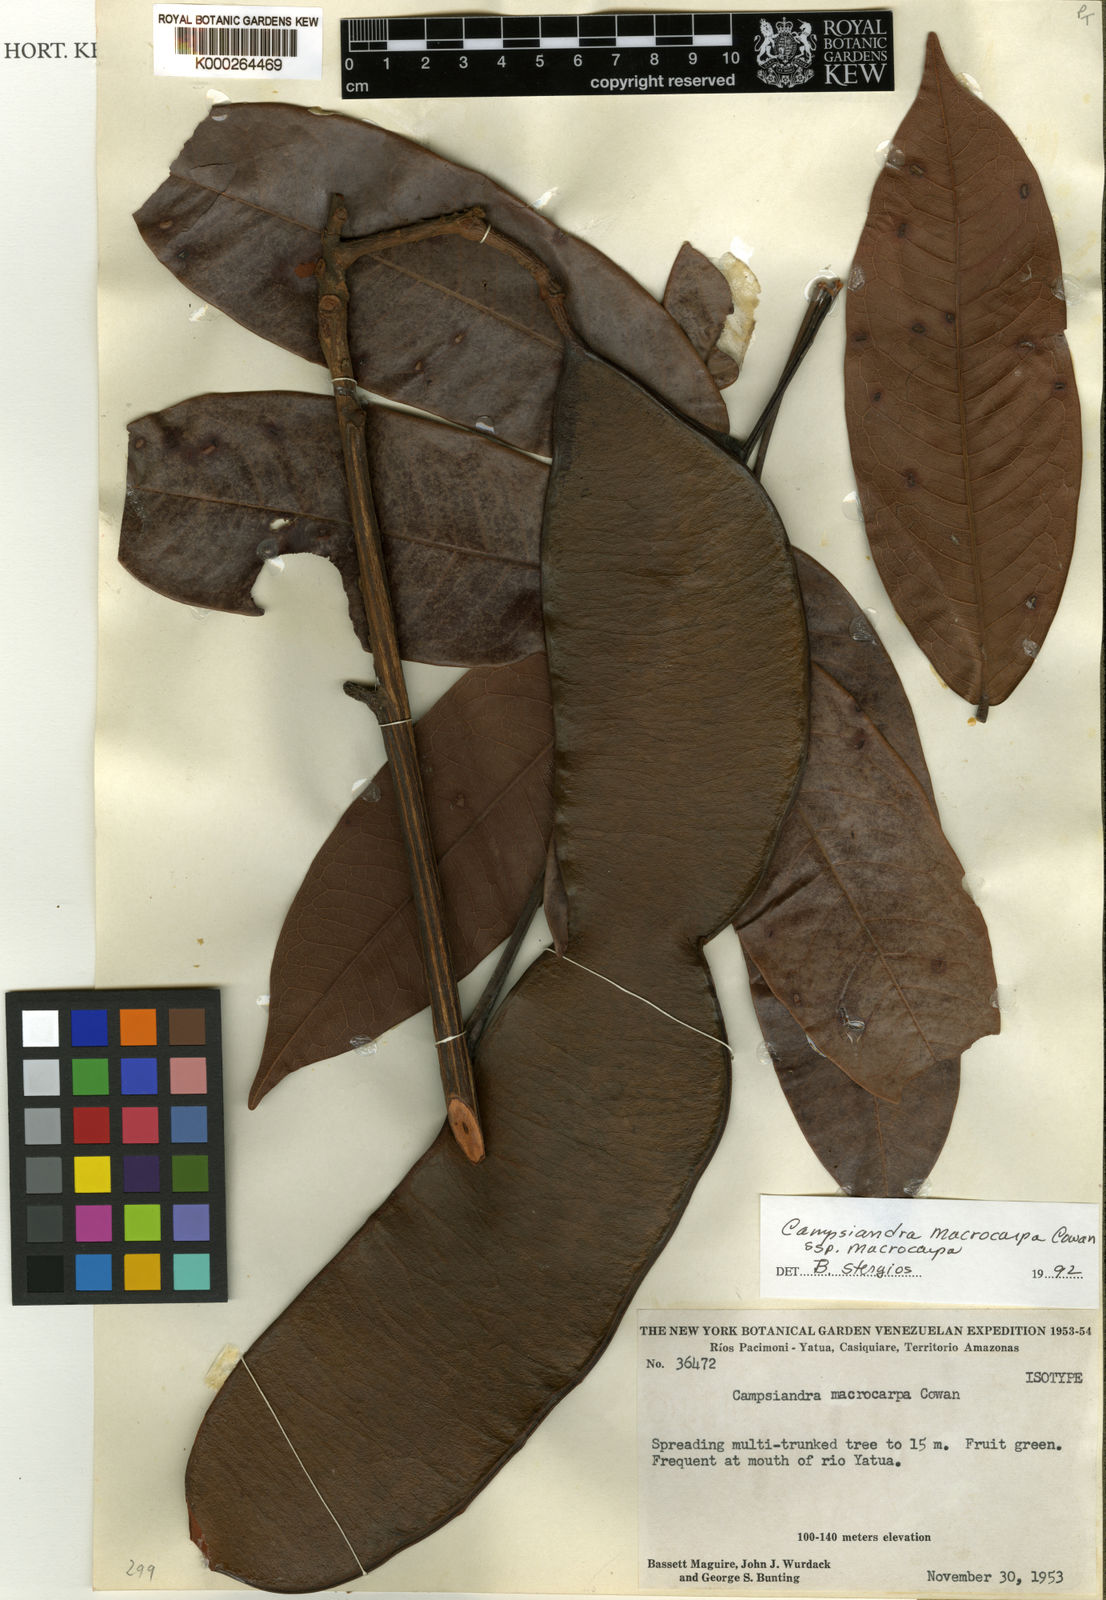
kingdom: Plantae
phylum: Tracheophyta
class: Magnoliopsida
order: Fabales
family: Fabaceae
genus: Campsiandra
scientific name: Campsiandra macrocarpa
